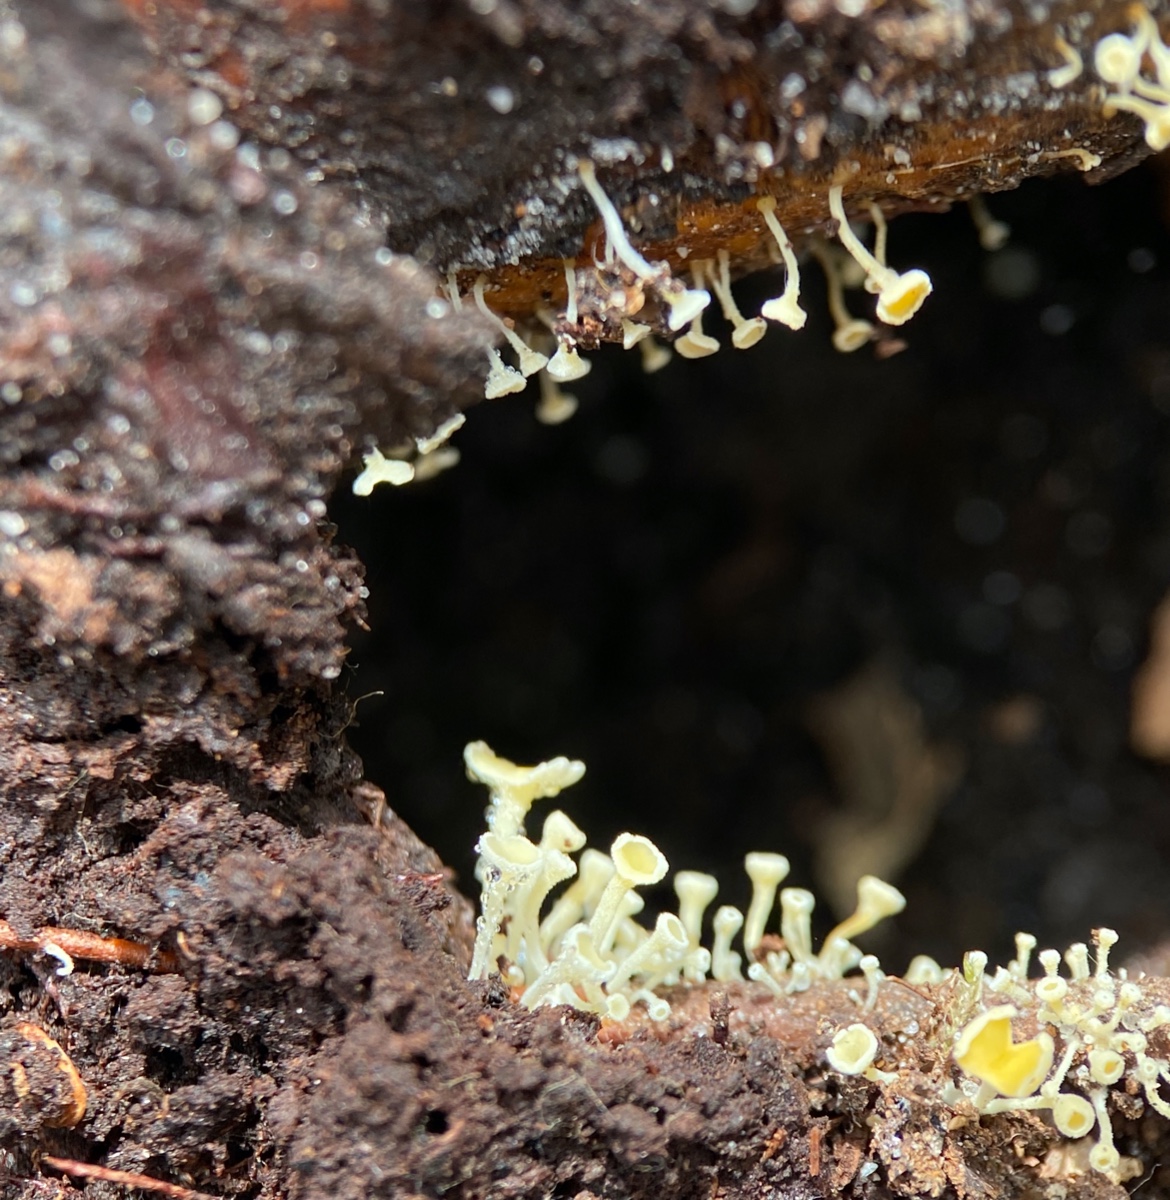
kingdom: Fungi
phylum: Ascomycota
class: Leotiomycetes
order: Helotiales
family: Helotiaceae
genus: Hymenoscyphus
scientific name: Hymenoscyphus
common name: stilkskive
